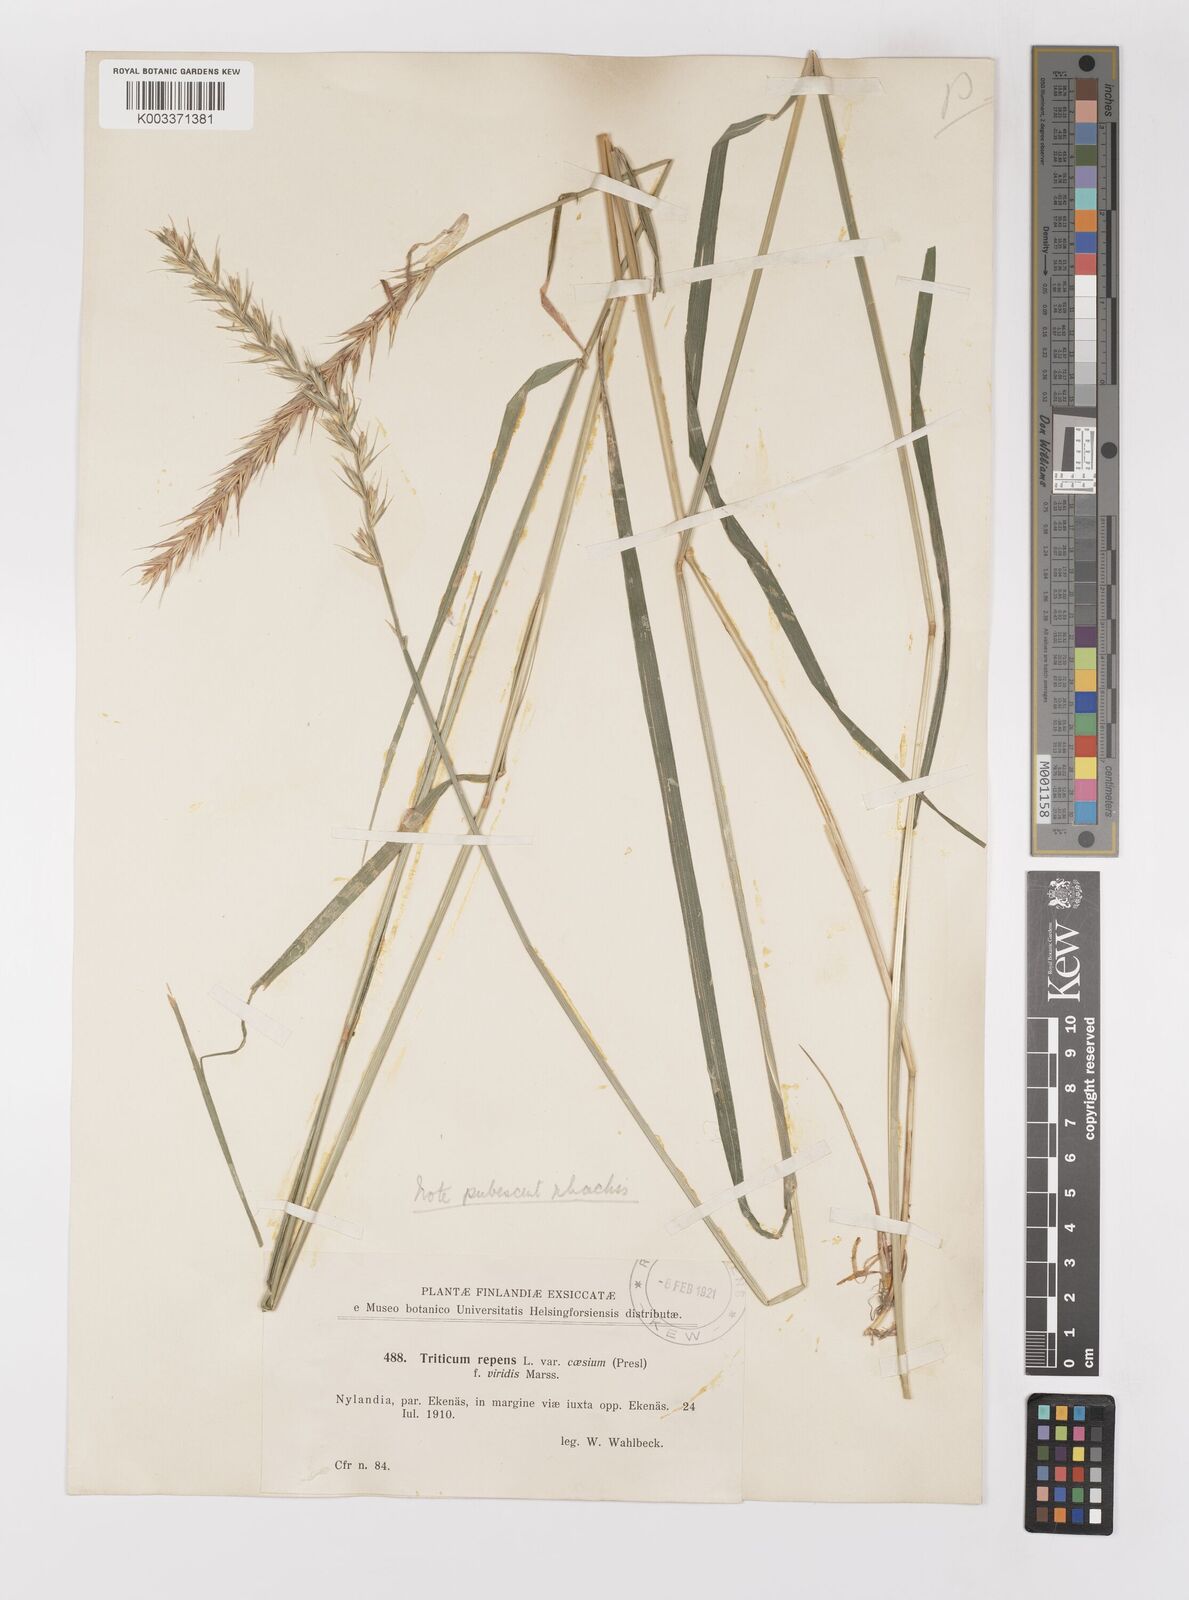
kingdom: Plantae
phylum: Tracheophyta
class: Liliopsida
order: Poales
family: Poaceae
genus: Elymus
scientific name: Elymus repens
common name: Quackgrass
